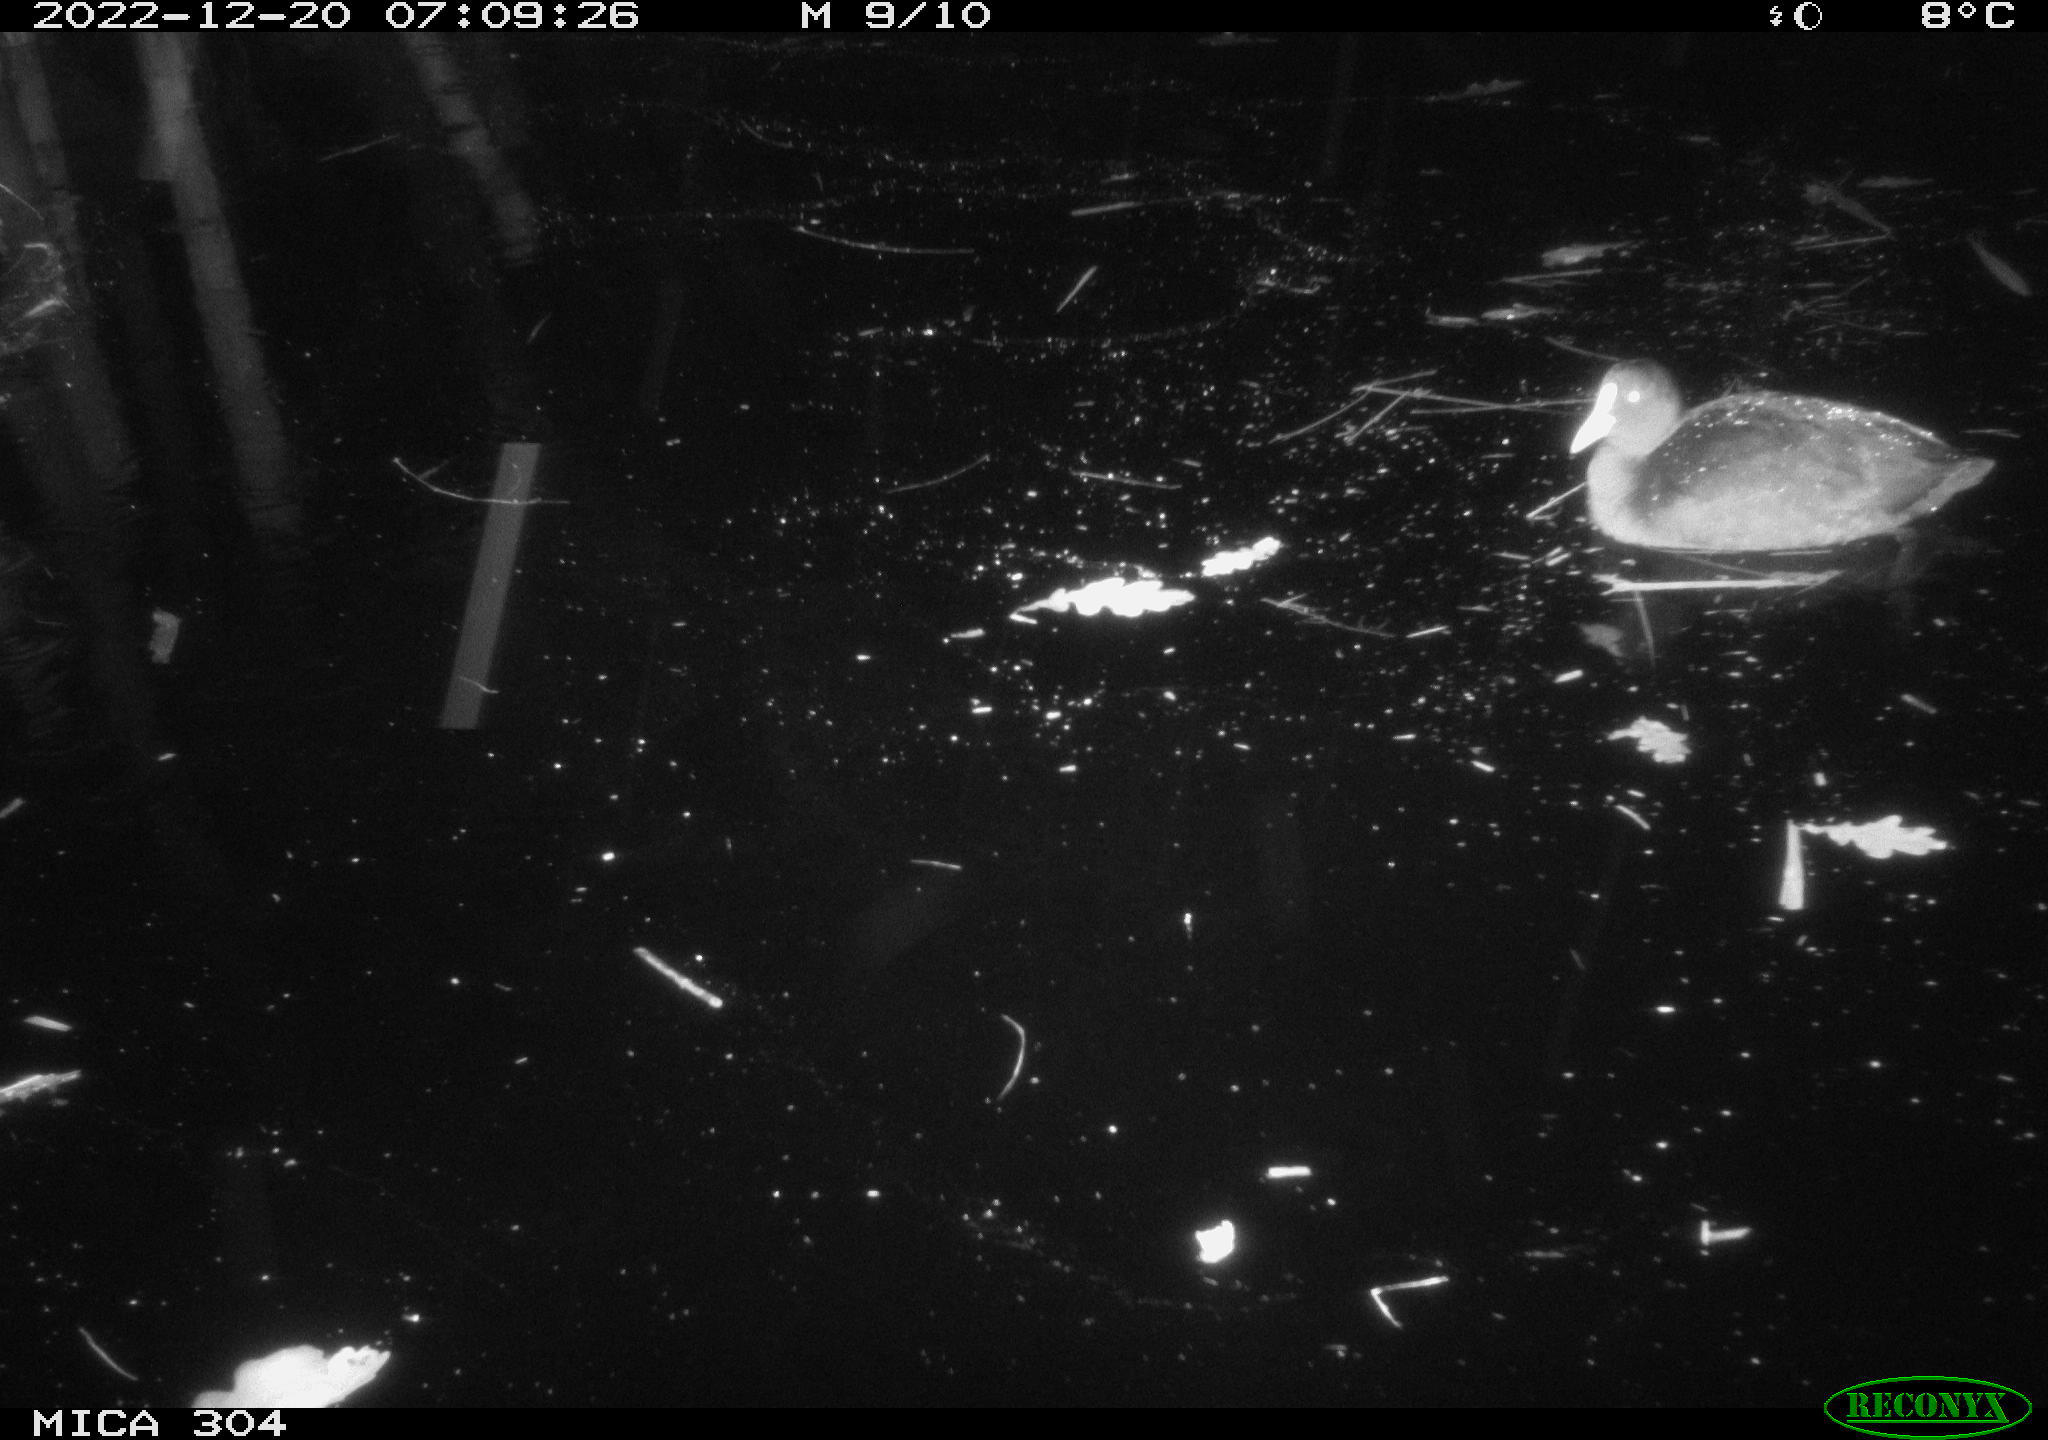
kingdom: Animalia
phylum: Chordata
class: Aves
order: Gruiformes
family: Rallidae
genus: Fulica
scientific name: Fulica atra
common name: Eurasian coot
